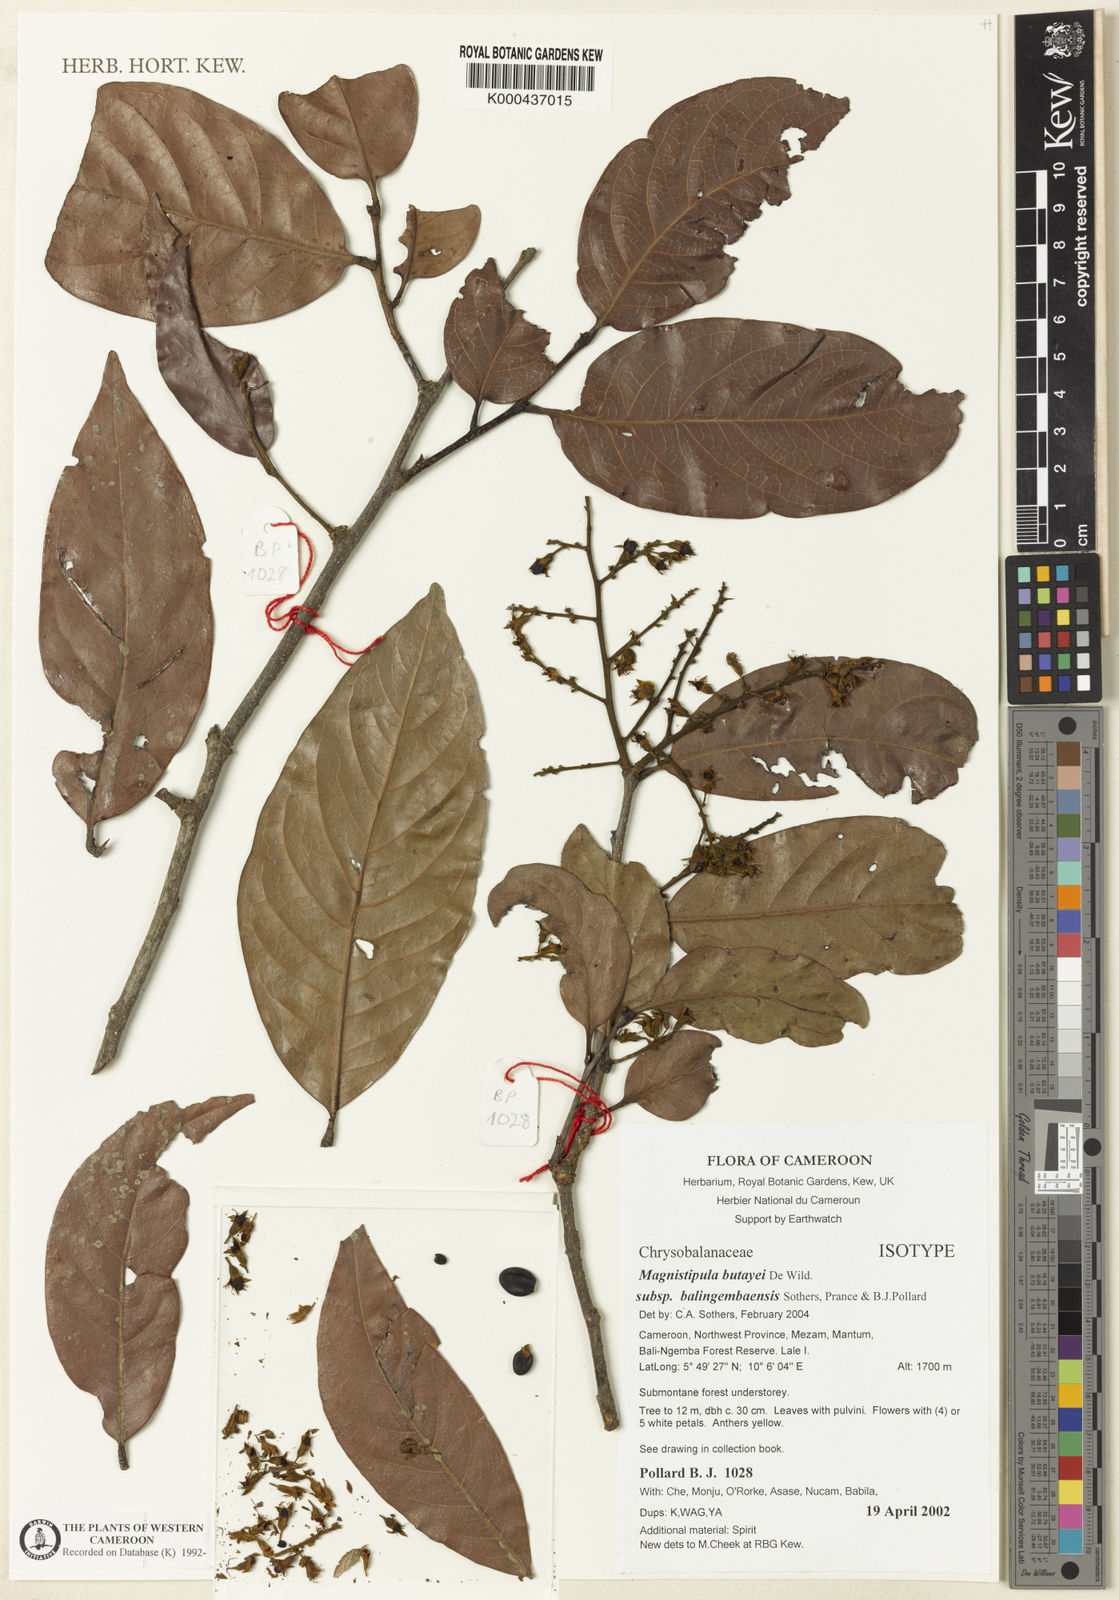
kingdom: Plantae
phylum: Tracheophyta
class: Magnoliopsida
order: Malpighiales
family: Chrysobalanaceae
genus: Magnistipula
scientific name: Magnistipula butayei
